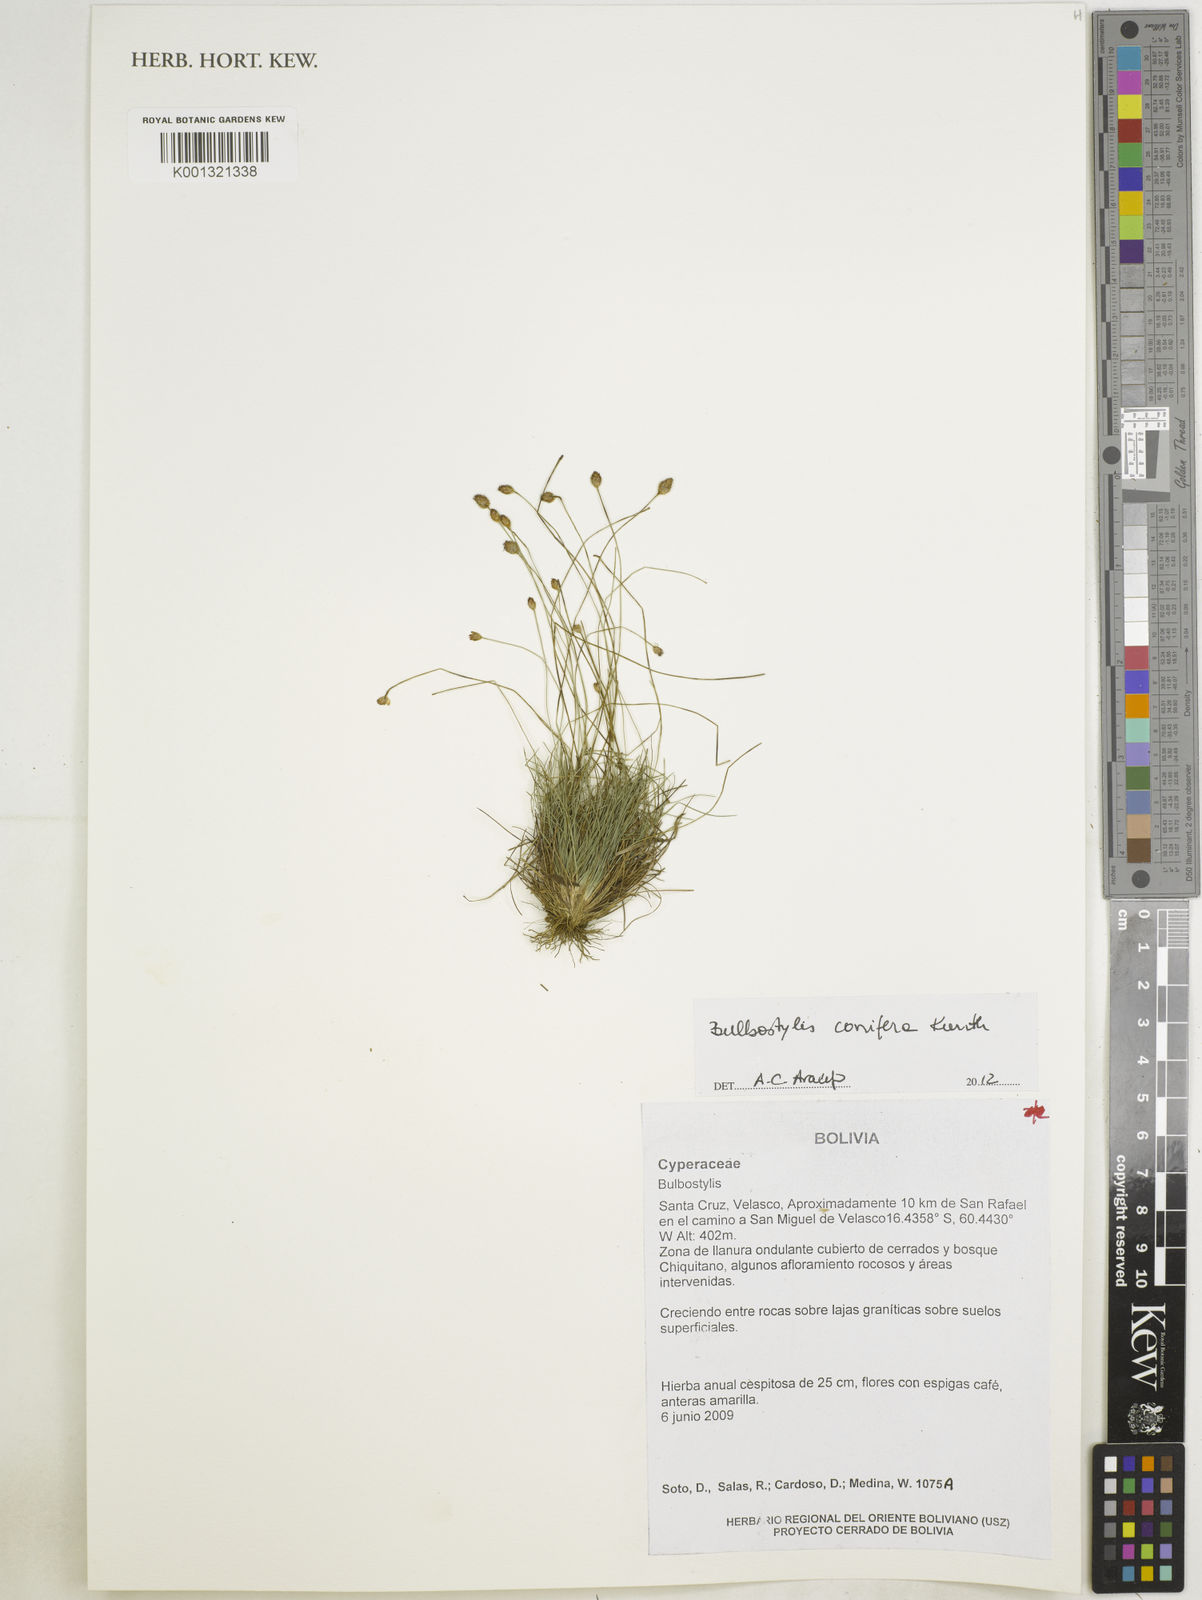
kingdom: Plantae
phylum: Tracheophyta
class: Liliopsida
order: Poales
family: Cyperaceae
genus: Bulbostylis
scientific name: Bulbostylis conifera
